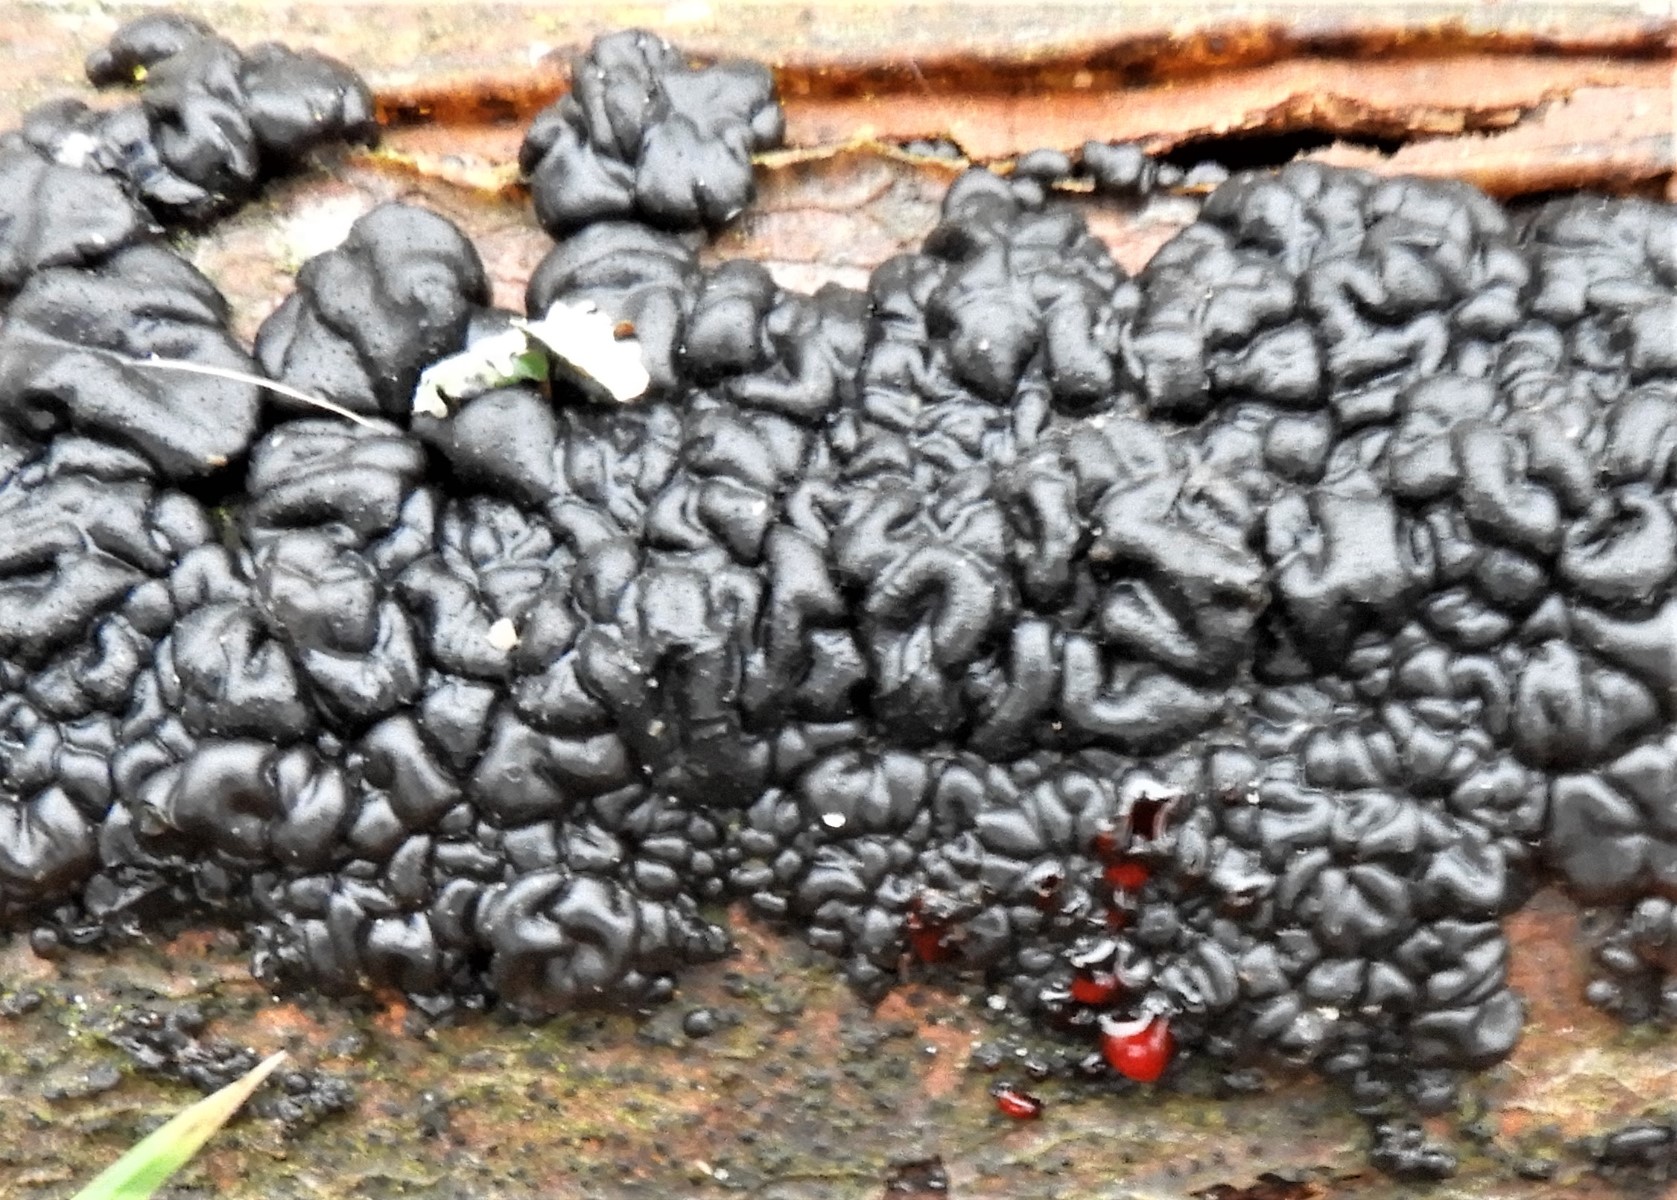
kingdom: Fungi
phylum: Basidiomycota
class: Agaricomycetes
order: Auriculariales
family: Auriculariaceae
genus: Exidia
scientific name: Exidia nigricans
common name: almindelig bævretop
